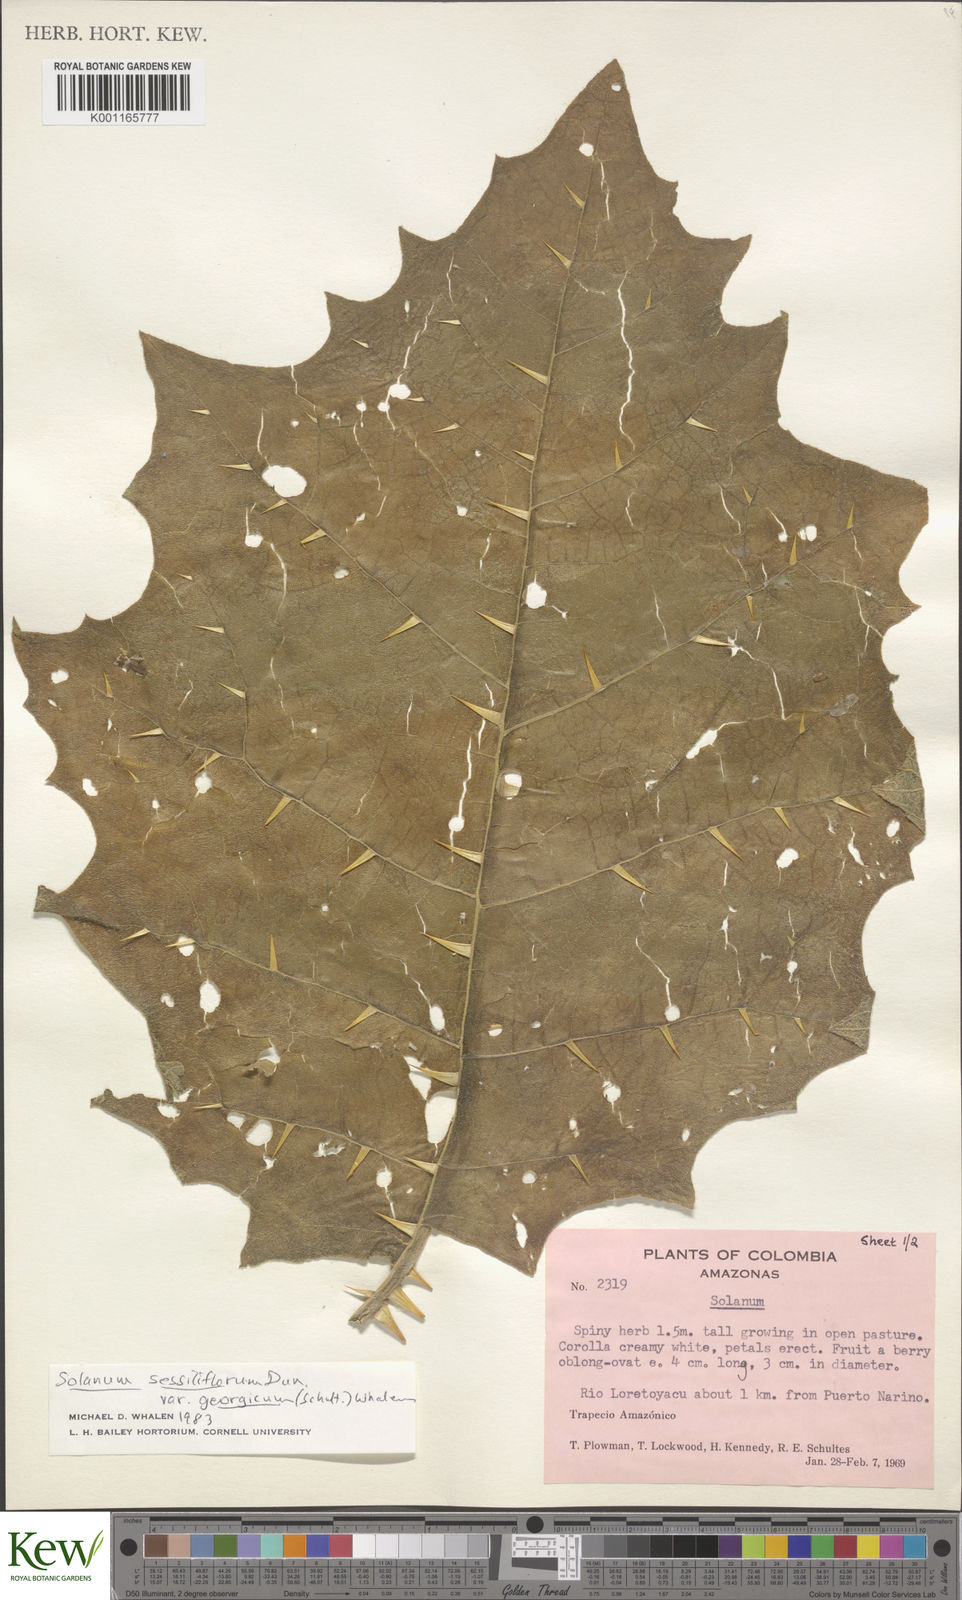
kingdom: Plantae
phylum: Tracheophyta
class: Magnoliopsida
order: Solanales
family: Solanaceae
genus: Solanum
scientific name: Solanum sessiliflorum
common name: Orinoco-apple
